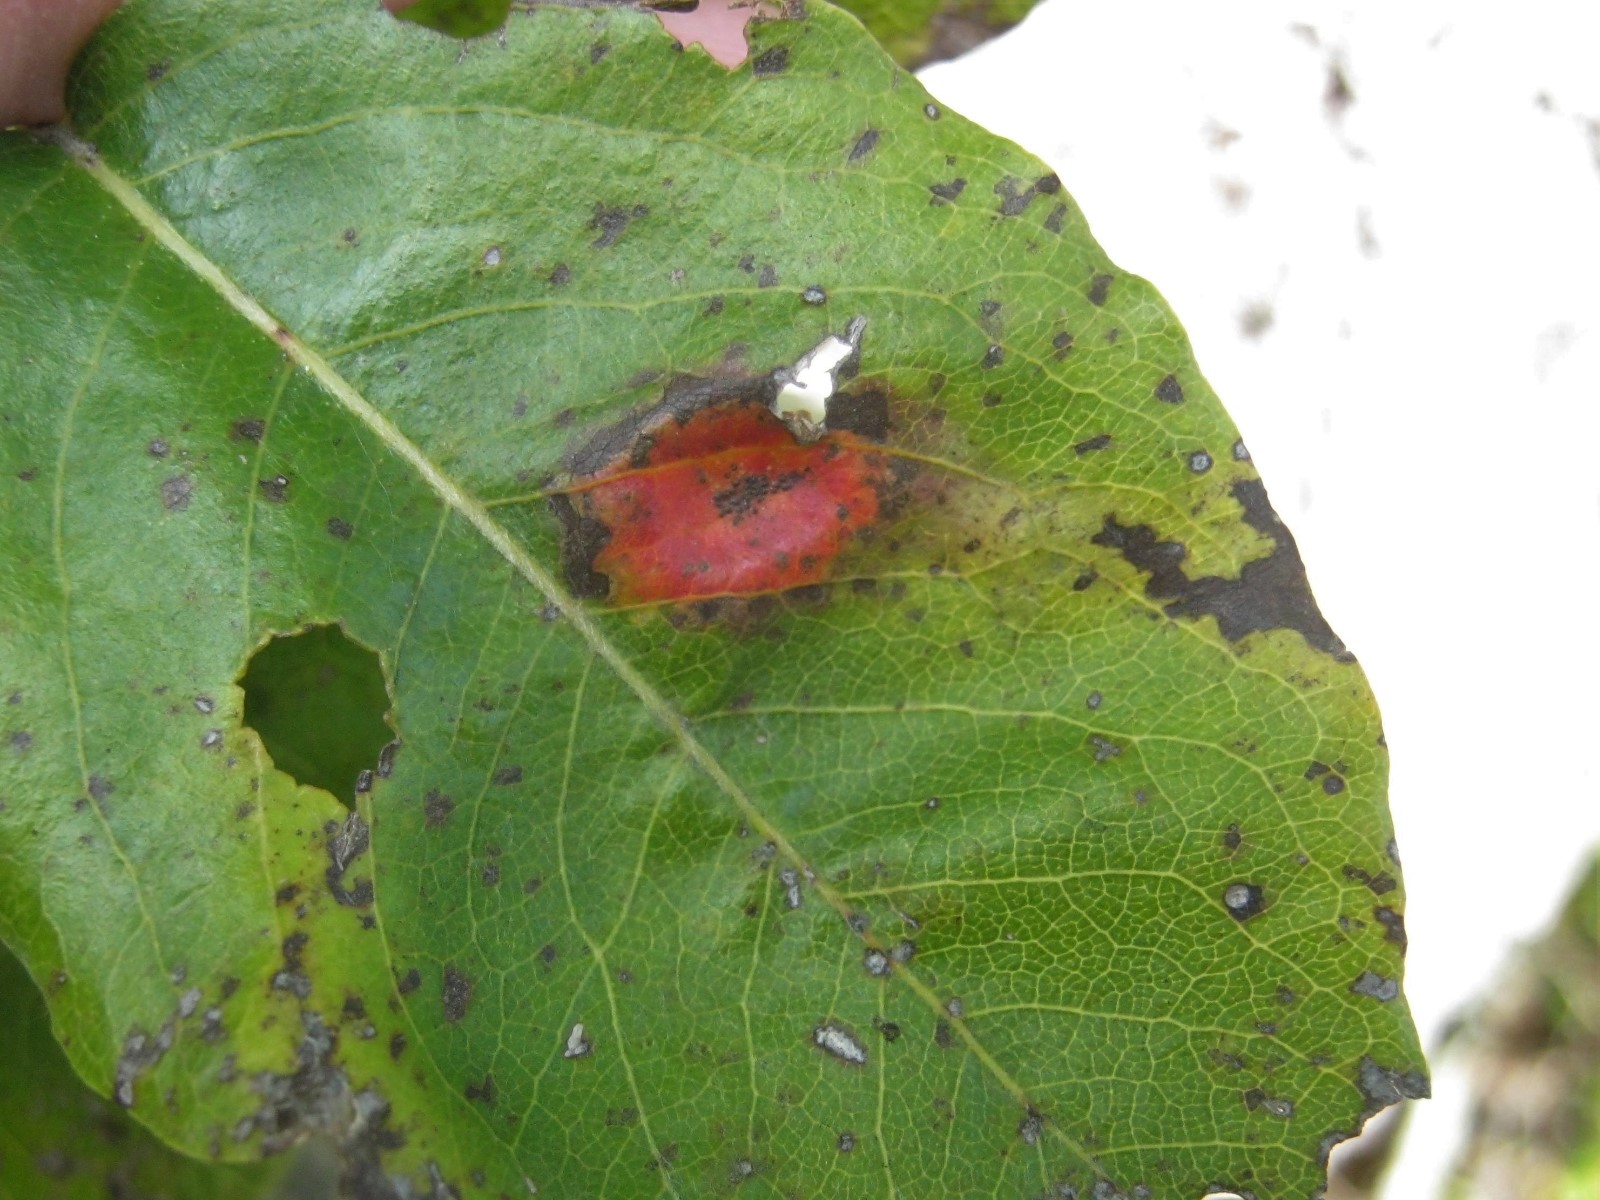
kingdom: Fungi
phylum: Basidiomycota
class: Pucciniomycetes
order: Pucciniales
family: Gymnosporangiaceae
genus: Gymnosporangium
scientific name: Gymnosporangium sabinae
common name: pæregitter-bævrerust
